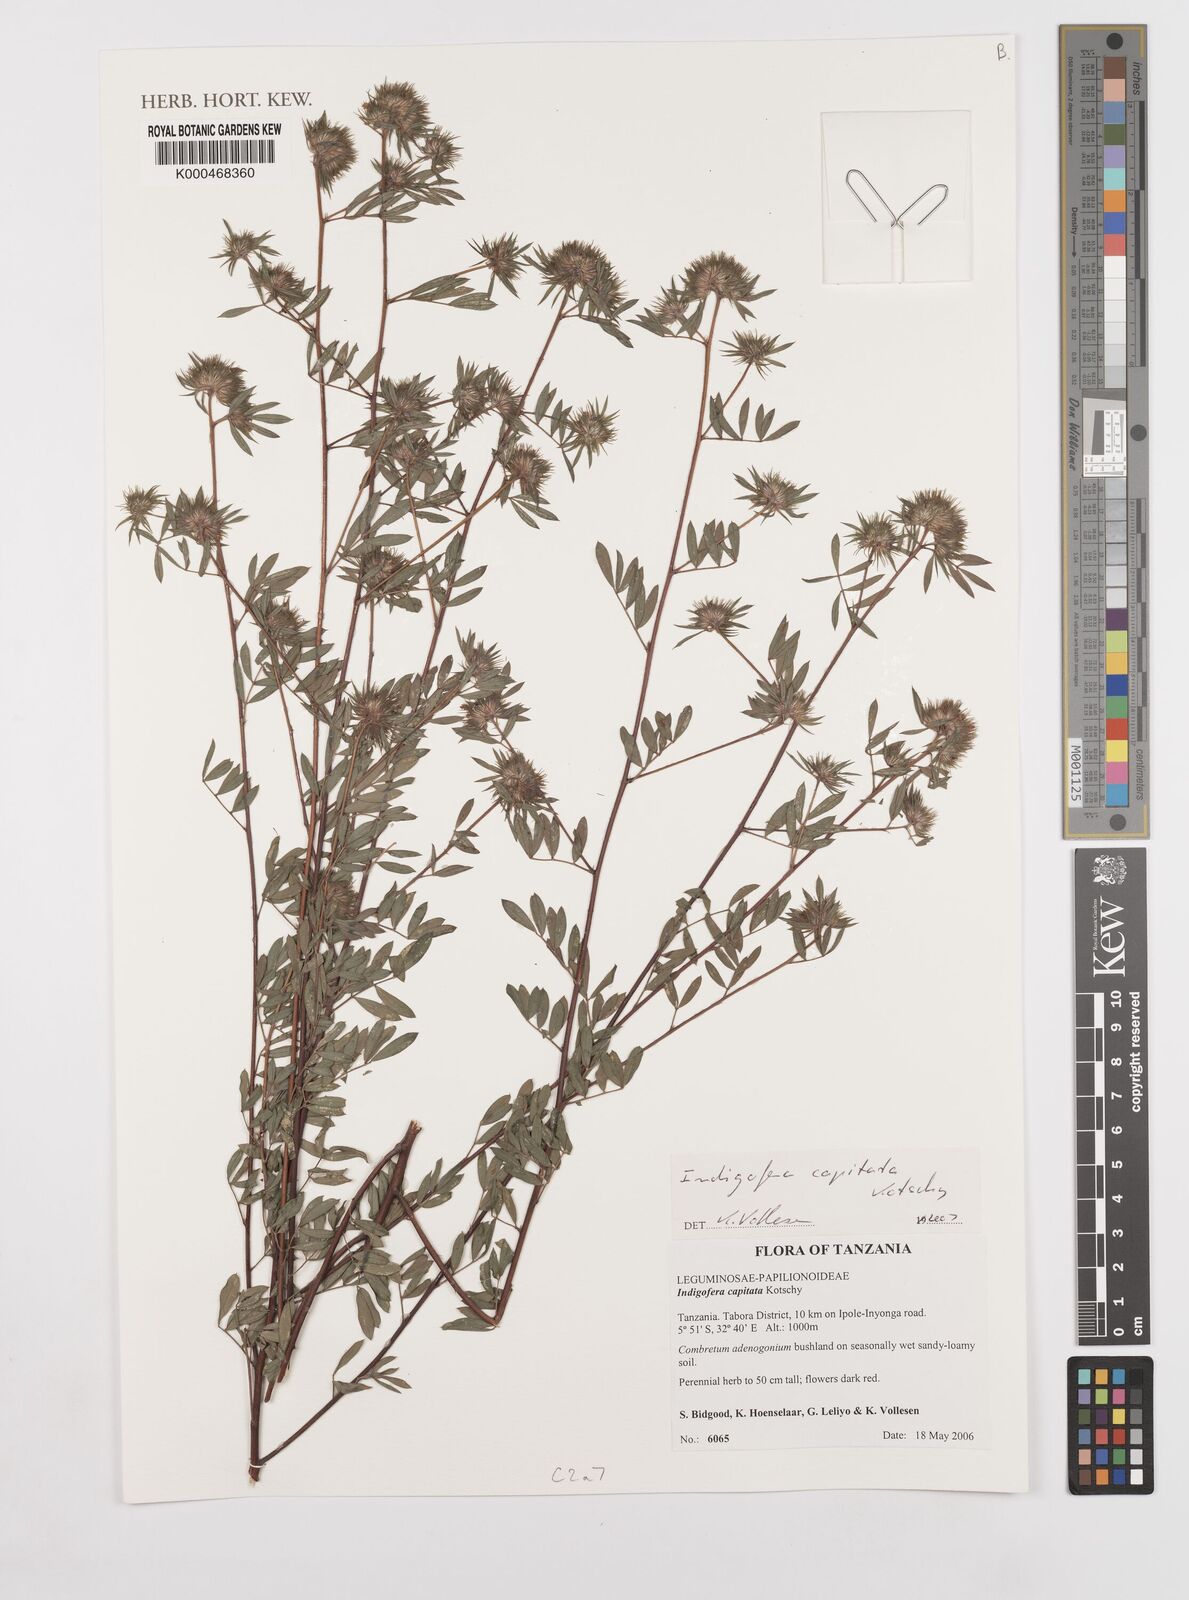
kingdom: Plantae
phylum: Tracheophyta
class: Magnoliopsida
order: Fabales
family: Fabaceae
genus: Indigofera
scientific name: Indigofera capitata
